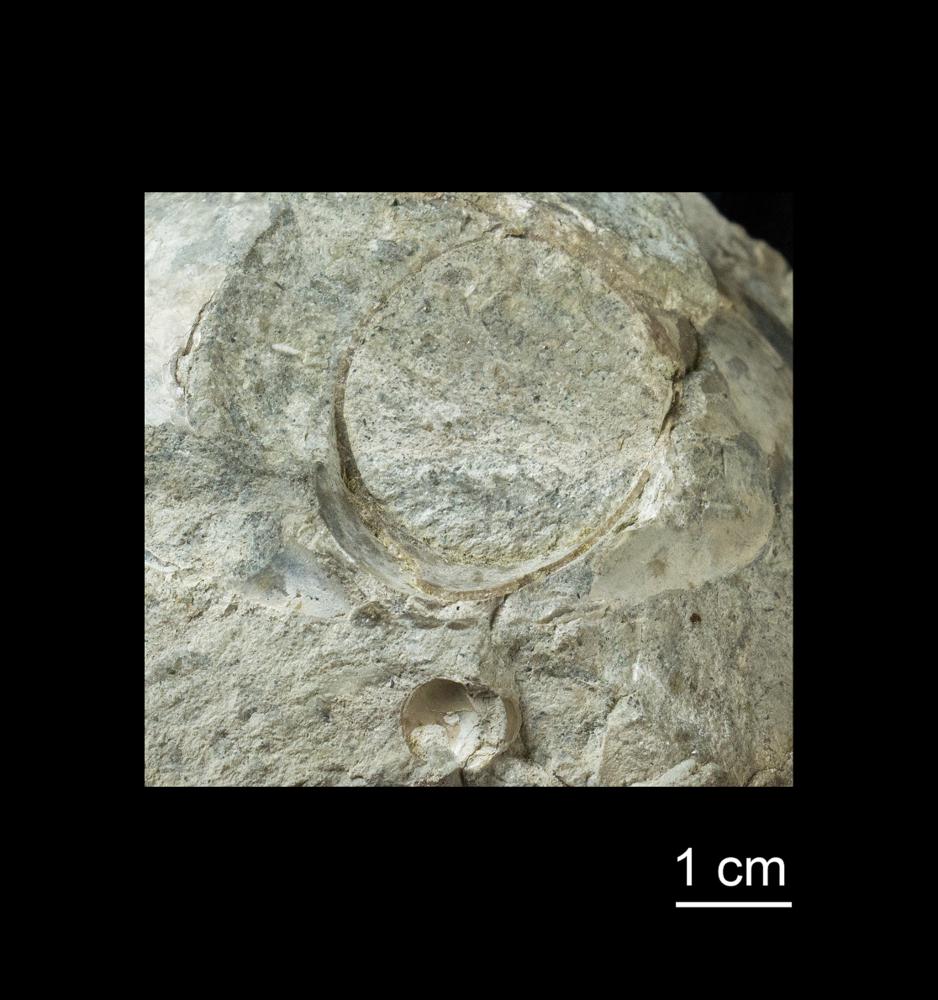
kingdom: Animalia
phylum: Mollusca
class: Cephalopoda
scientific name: Cephalopoda
